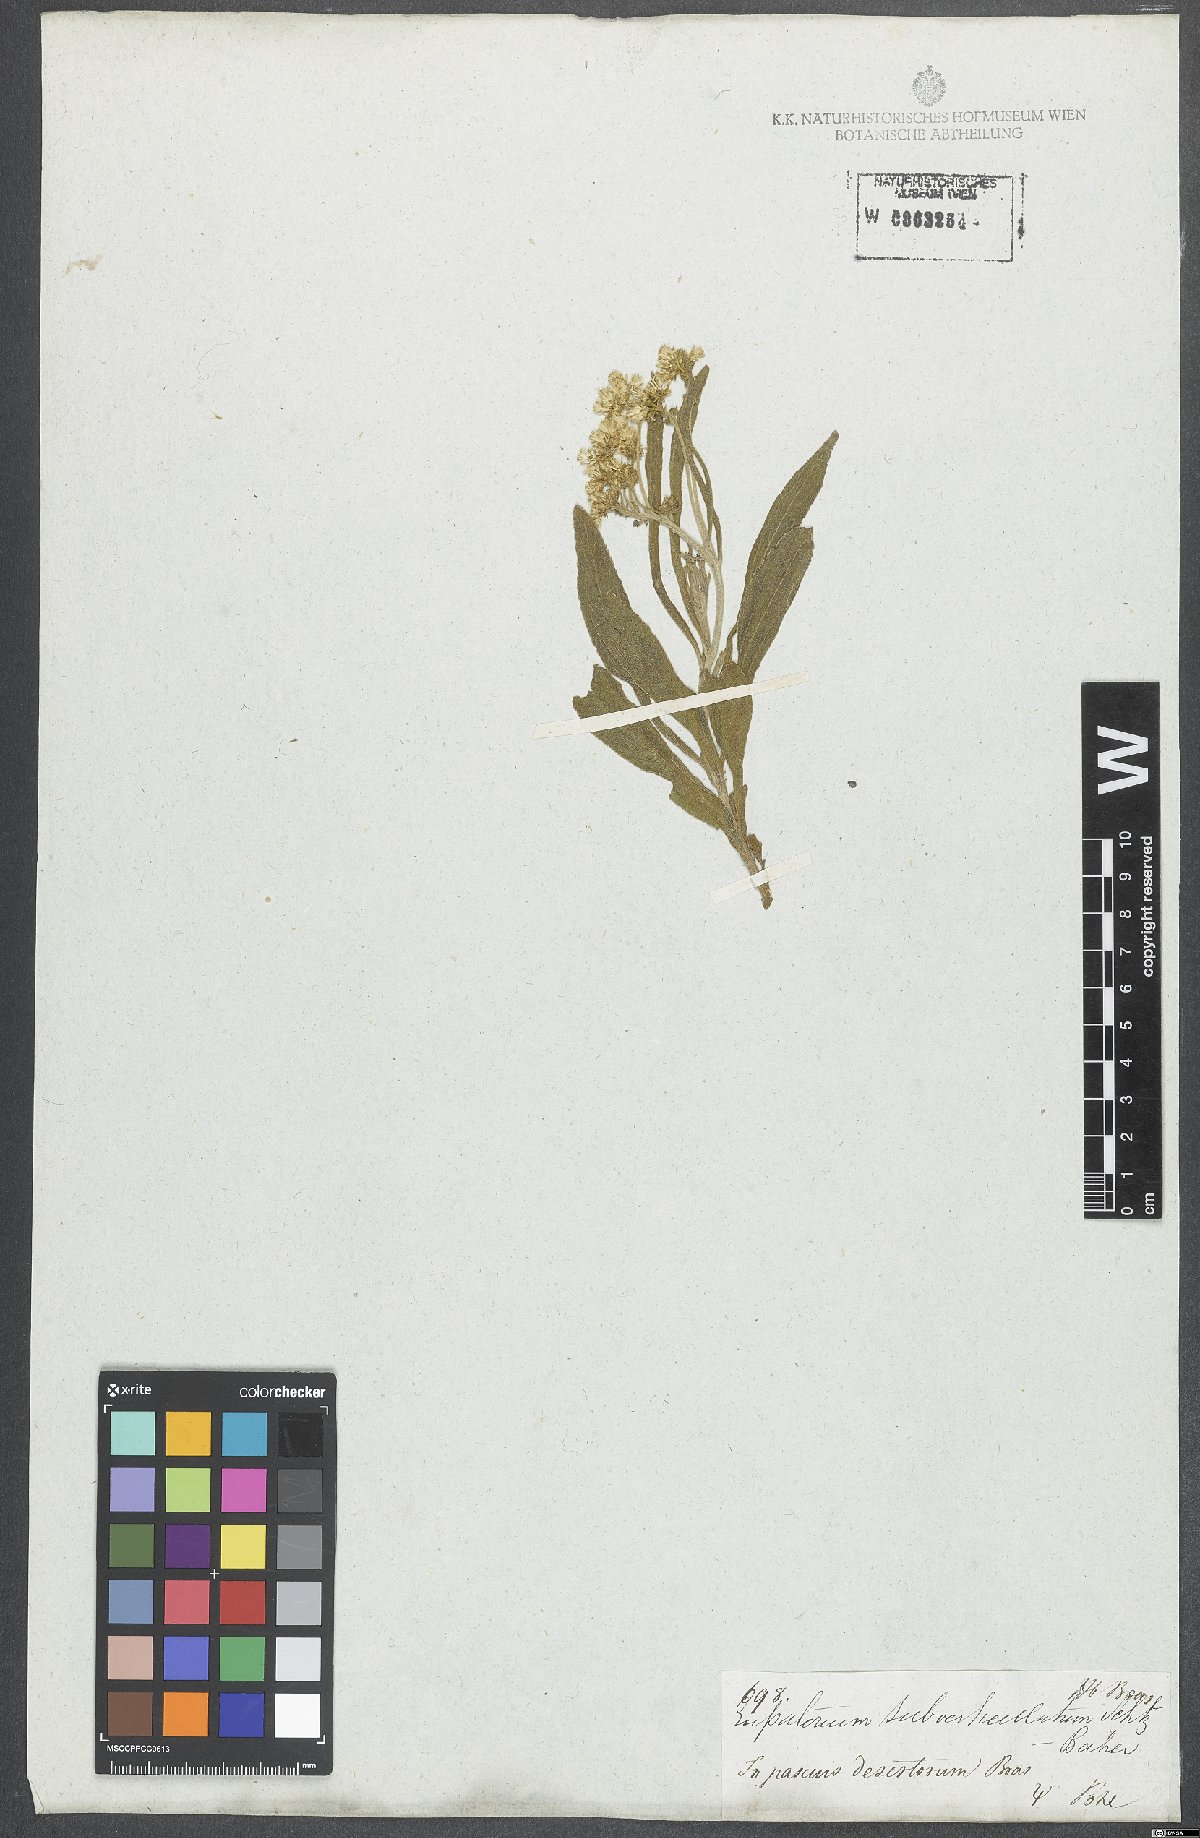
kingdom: Plantae
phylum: Tracheophyta
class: Magnoliopsida
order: Asterales
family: Asteraceae
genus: Mikania
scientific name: Mikania subverticillata
